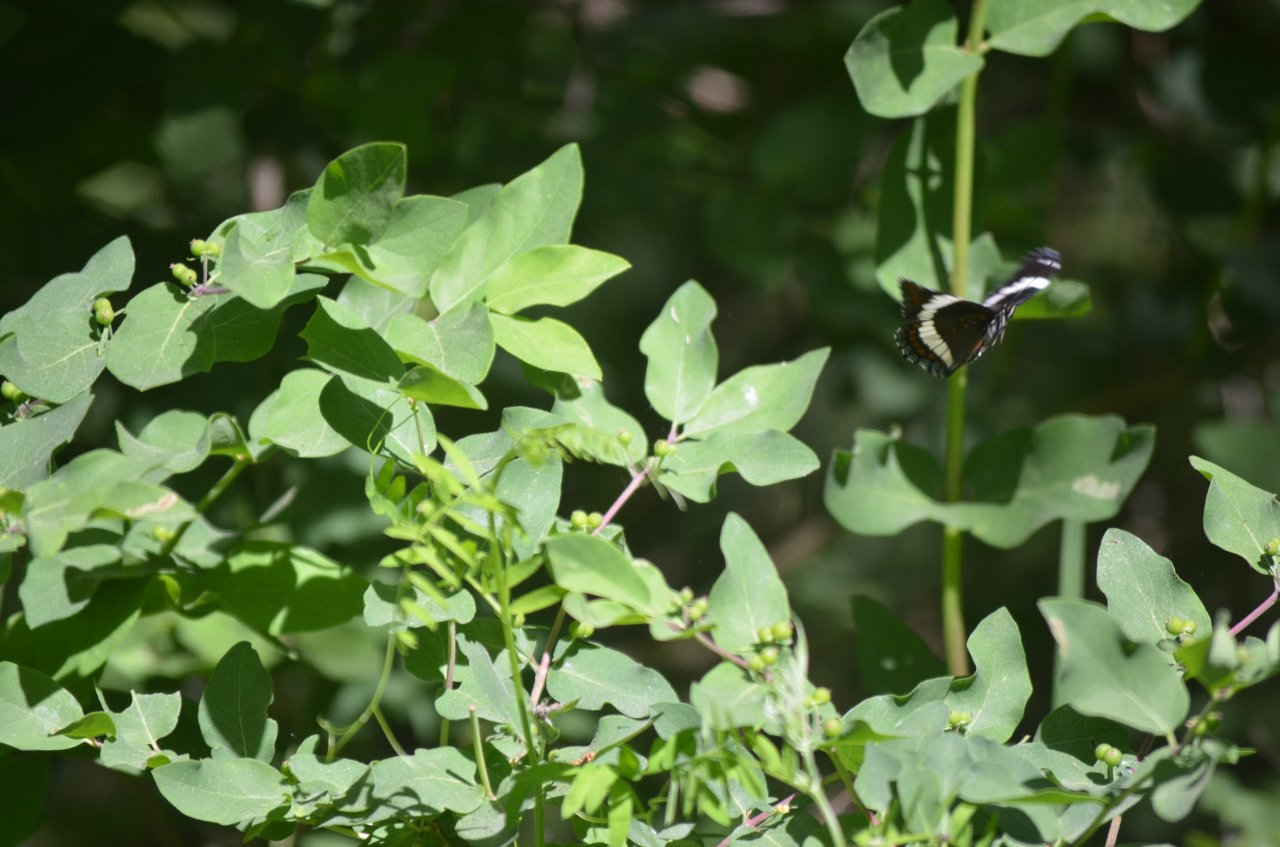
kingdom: Animalia
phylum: Arthropoda
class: Insecta
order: Lepidoptera
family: Nymphalidae
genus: Limenitis
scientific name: Limenitis arthemis
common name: Red-spotted Admiral
